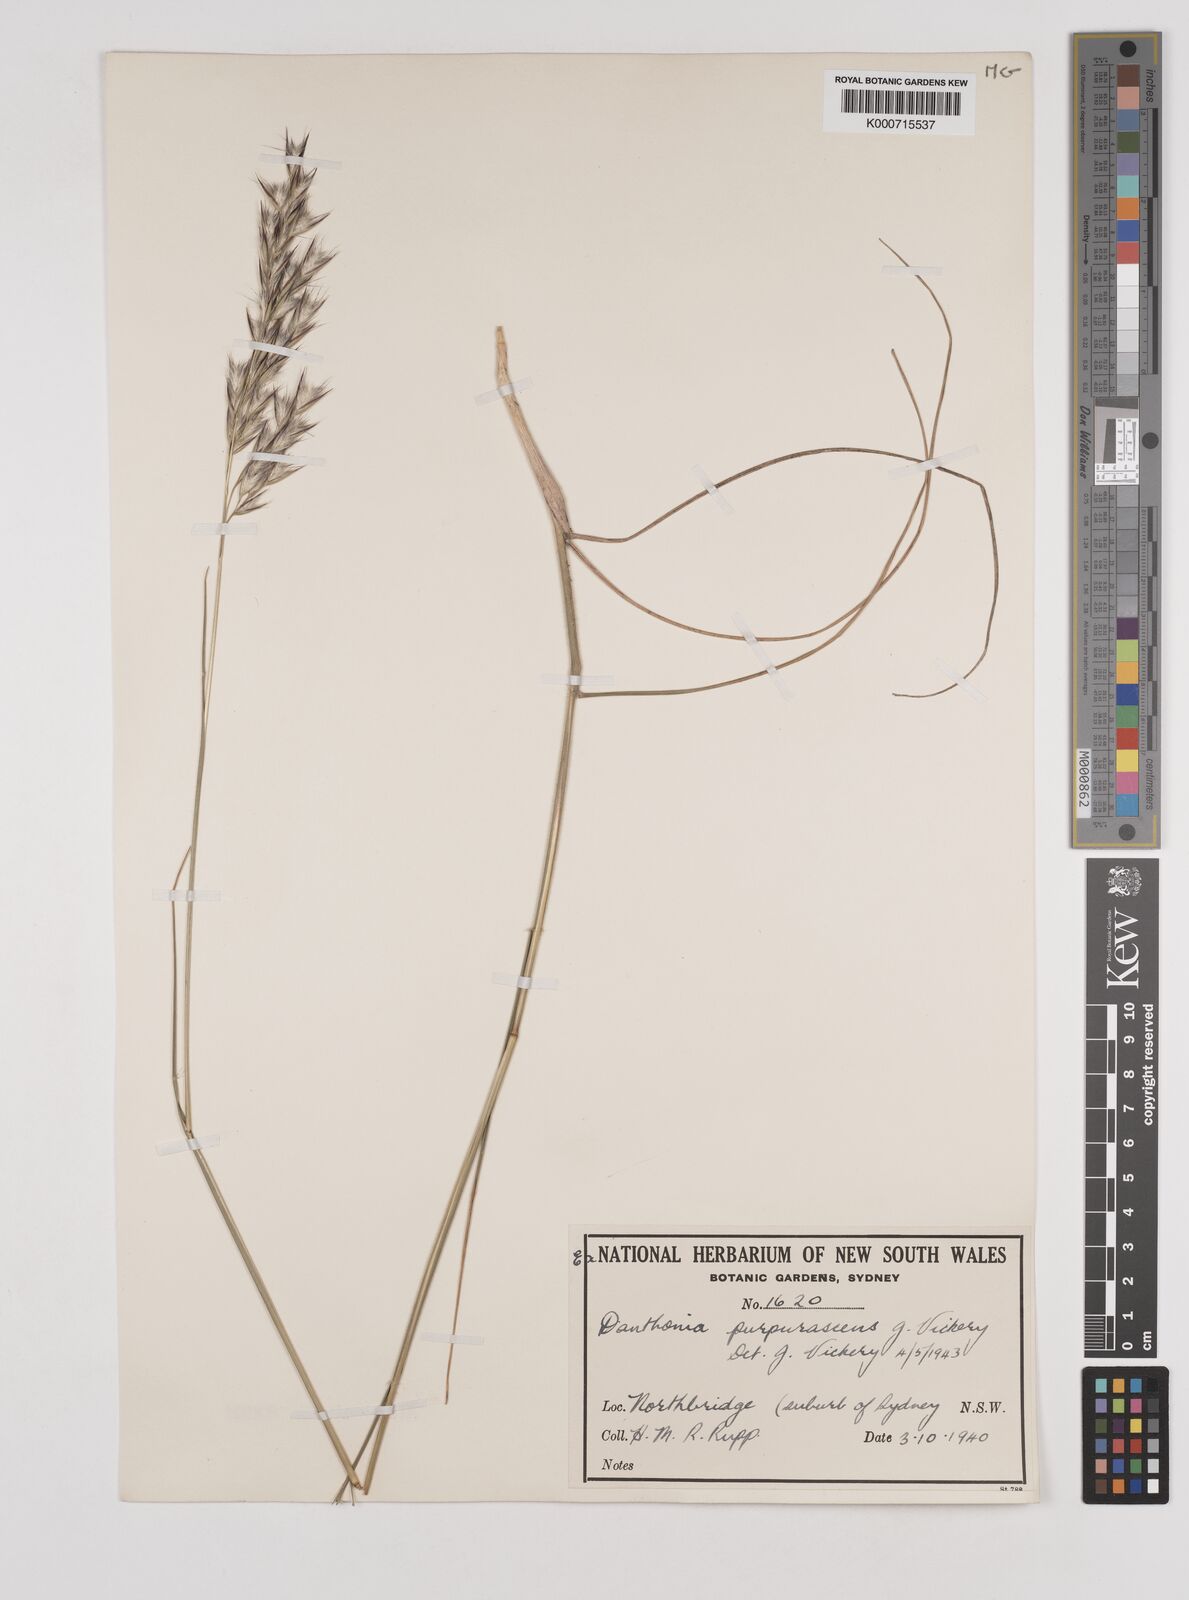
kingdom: Plantae
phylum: Tracheophyta
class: Liliopsida
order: Poales
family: Poaceae
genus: Rytidosperma
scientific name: Rytidosperma tenuius
